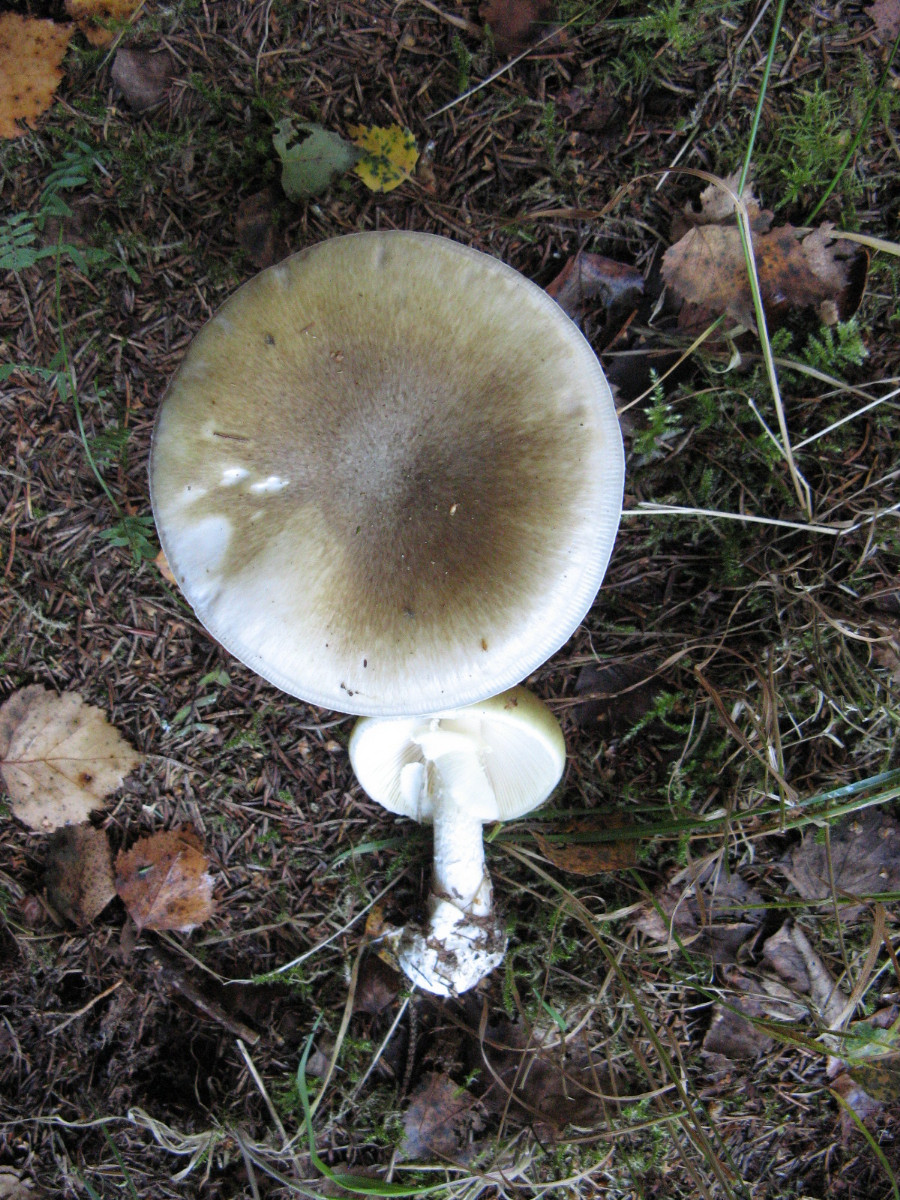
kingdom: Fungi
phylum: Basidiomycota
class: Agaricomycetes
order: Agaricales
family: Amanitaceae
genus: Amanita
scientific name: Amanita phalloides
